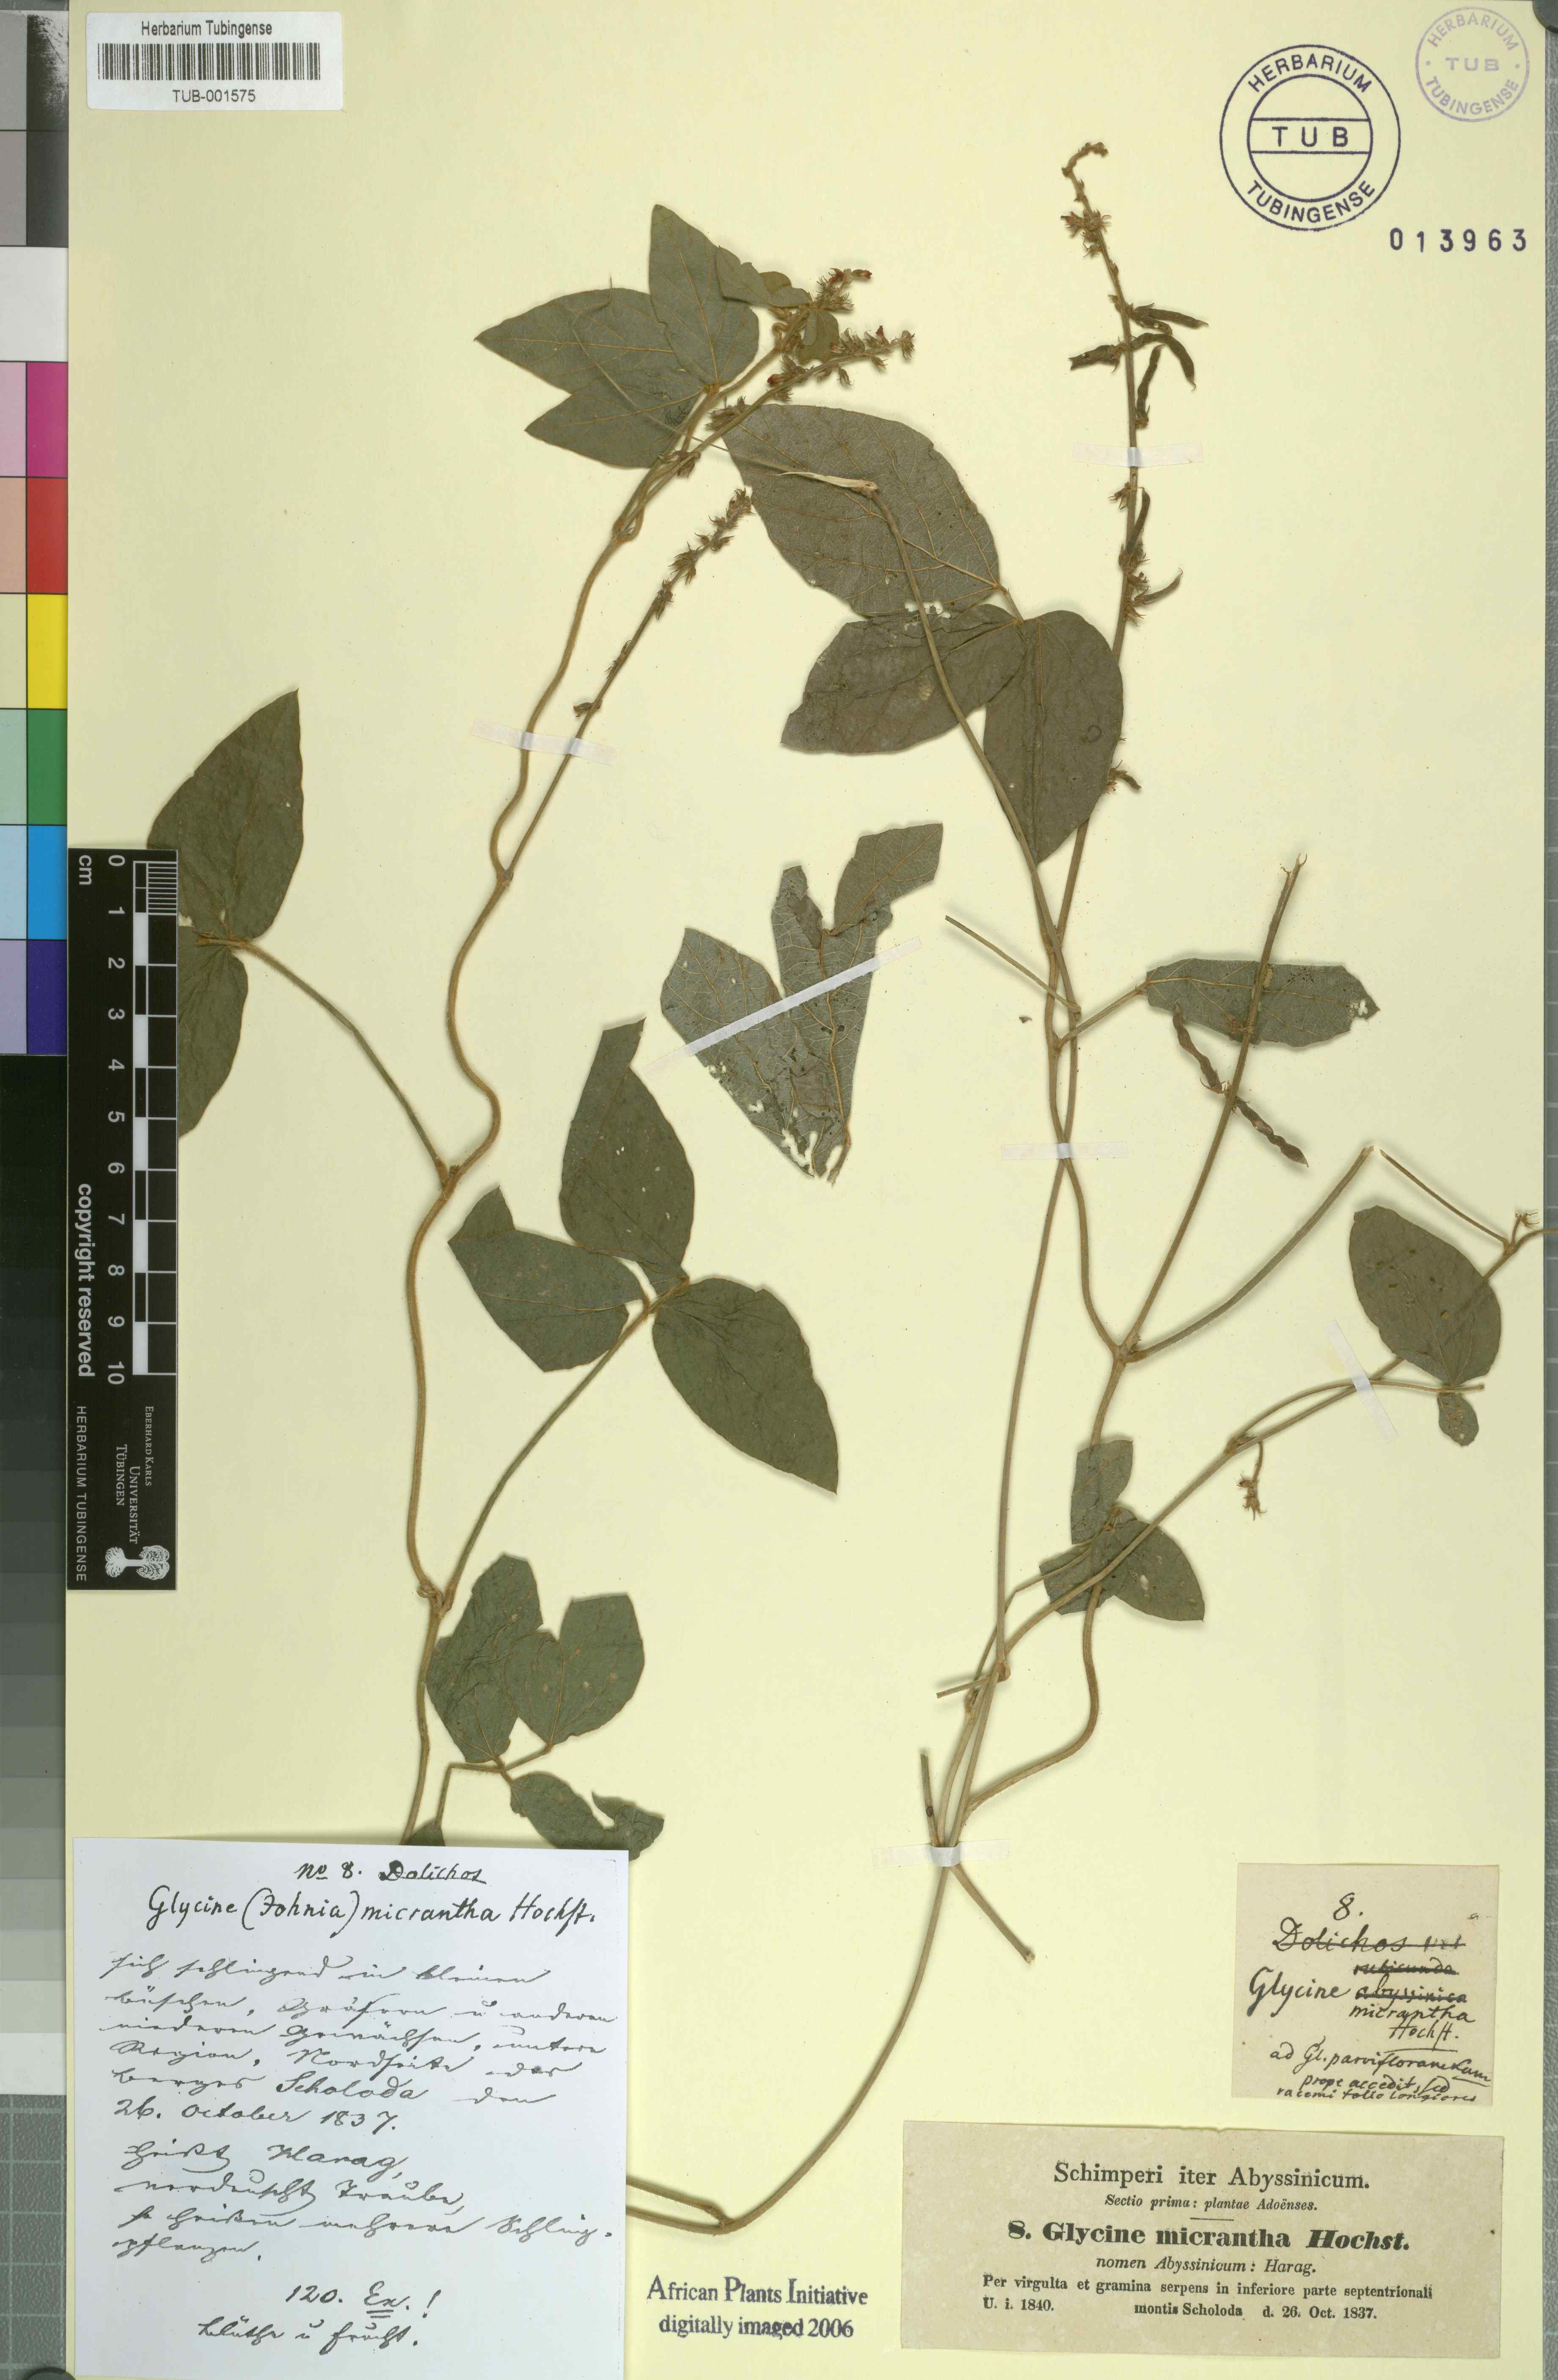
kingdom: Plantae
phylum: Tracheophyta
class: Magnoliopsida
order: Fabales
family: Fabaceae
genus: Pueraria
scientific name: Pueraria montana
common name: Kudzu
